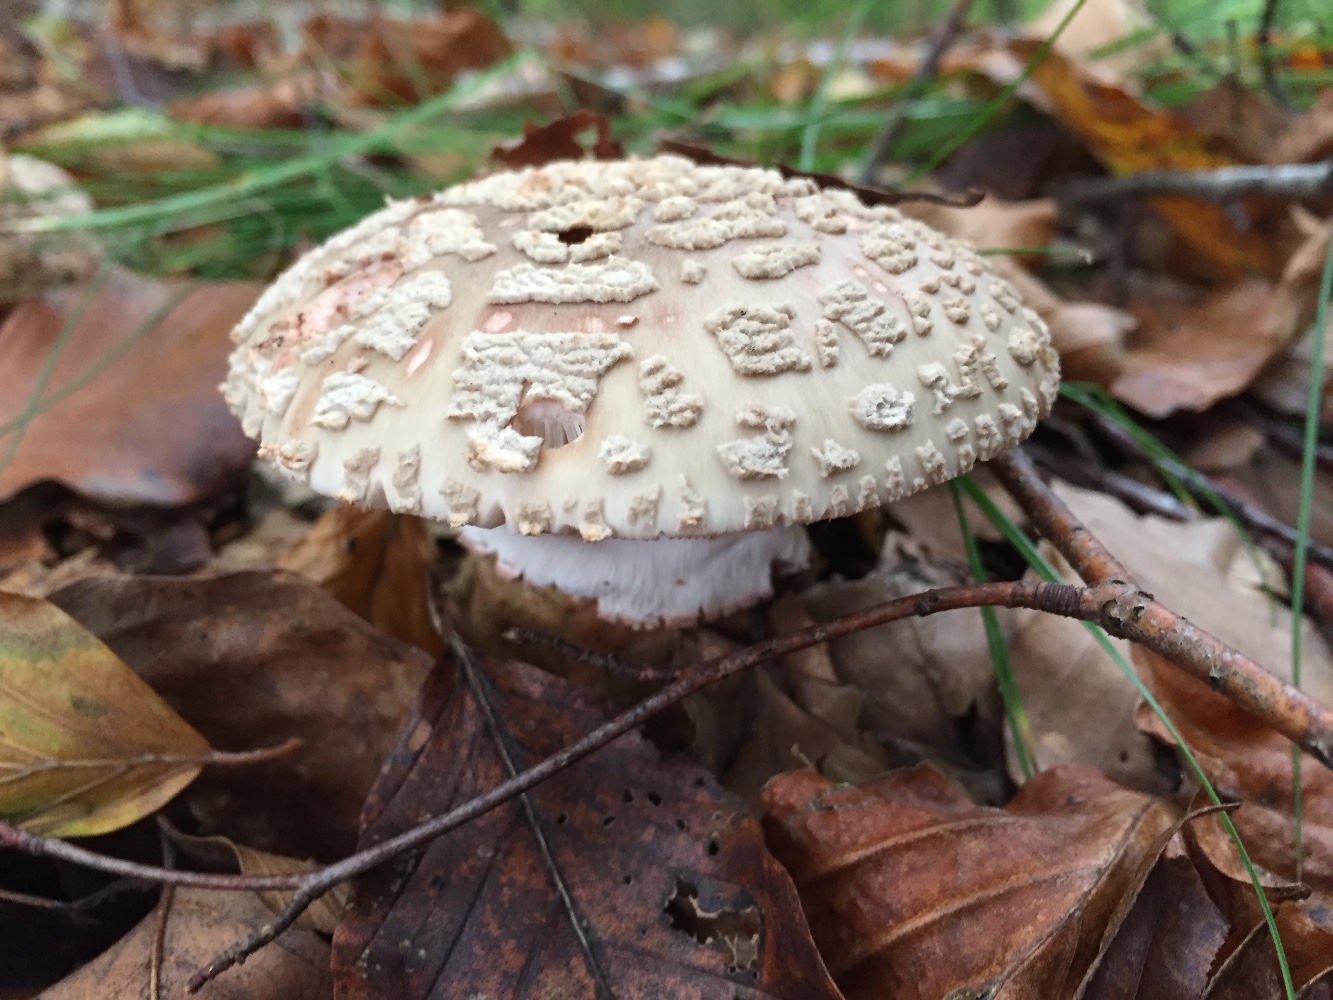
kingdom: Fungi
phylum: Basidiomycota
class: Agaricomycetes
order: Agaricales
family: Amanitaceae
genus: Amanita
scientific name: Amanita rubescens
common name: rødmende fluesvamp
